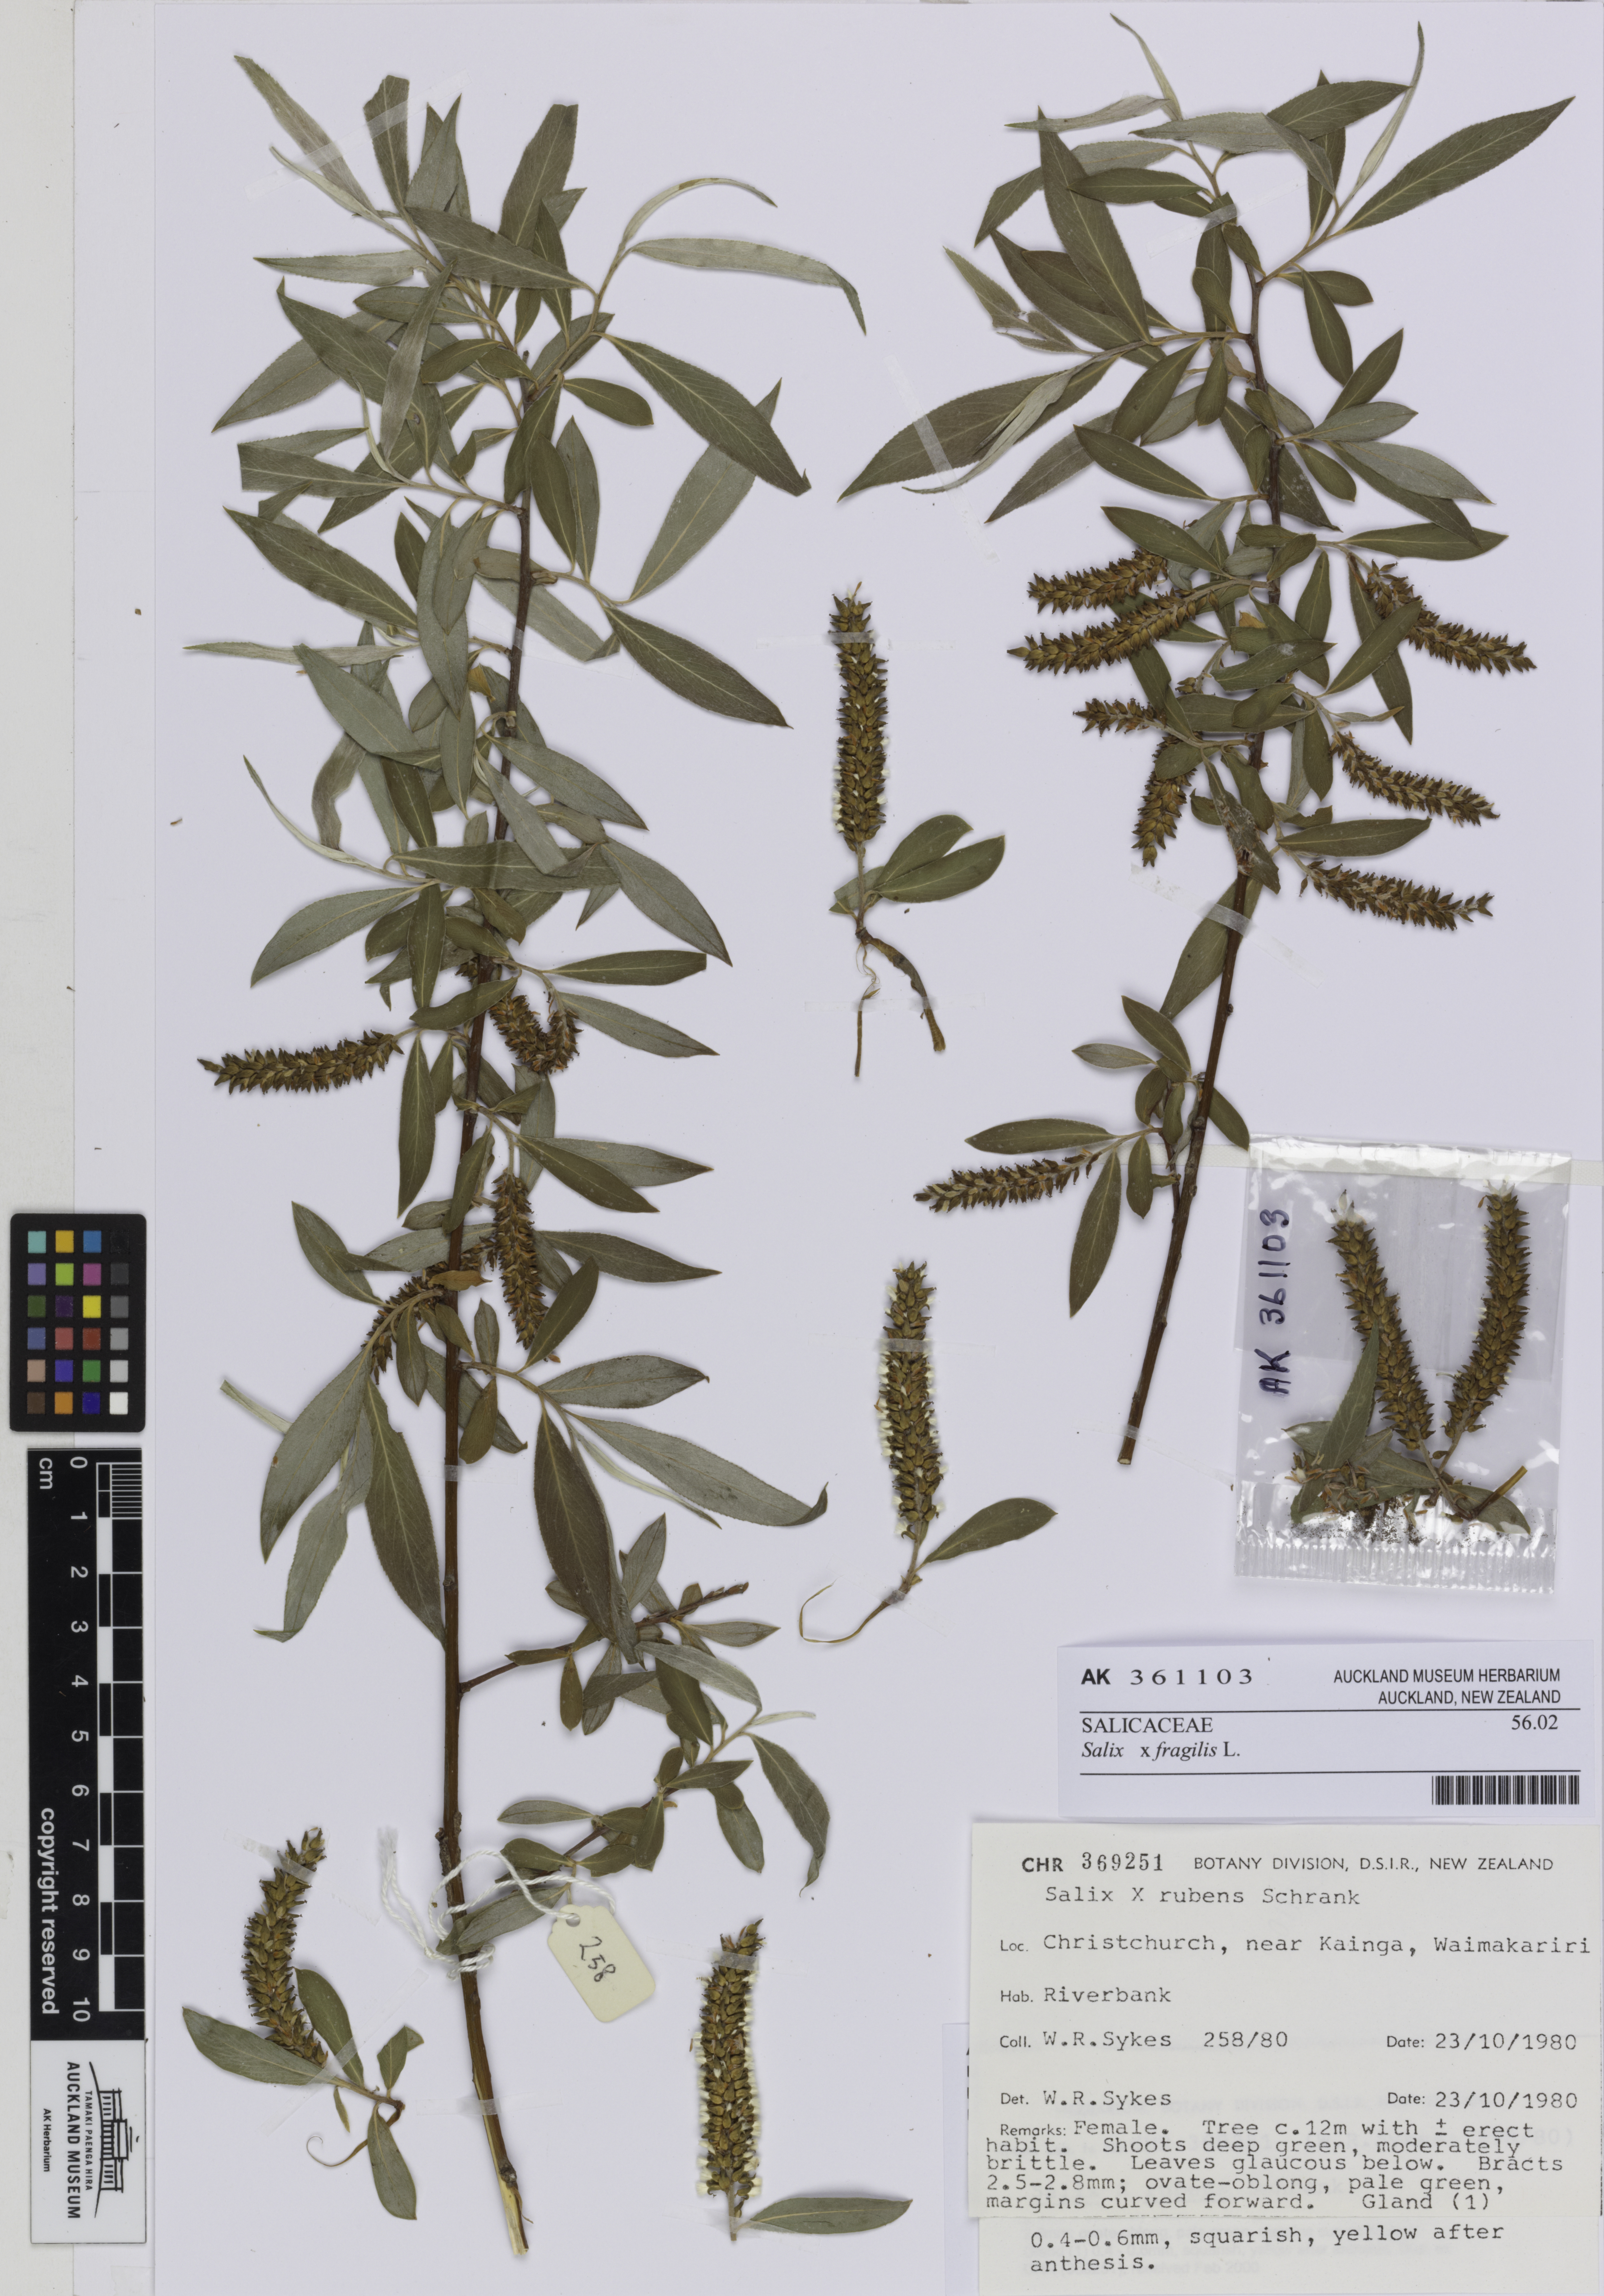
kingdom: Plantae
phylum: Tracheophyta
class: Magnoliopsida
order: Malpighiales
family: Salicaceae
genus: Salix
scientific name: Salix fragilis
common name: Crack willow
